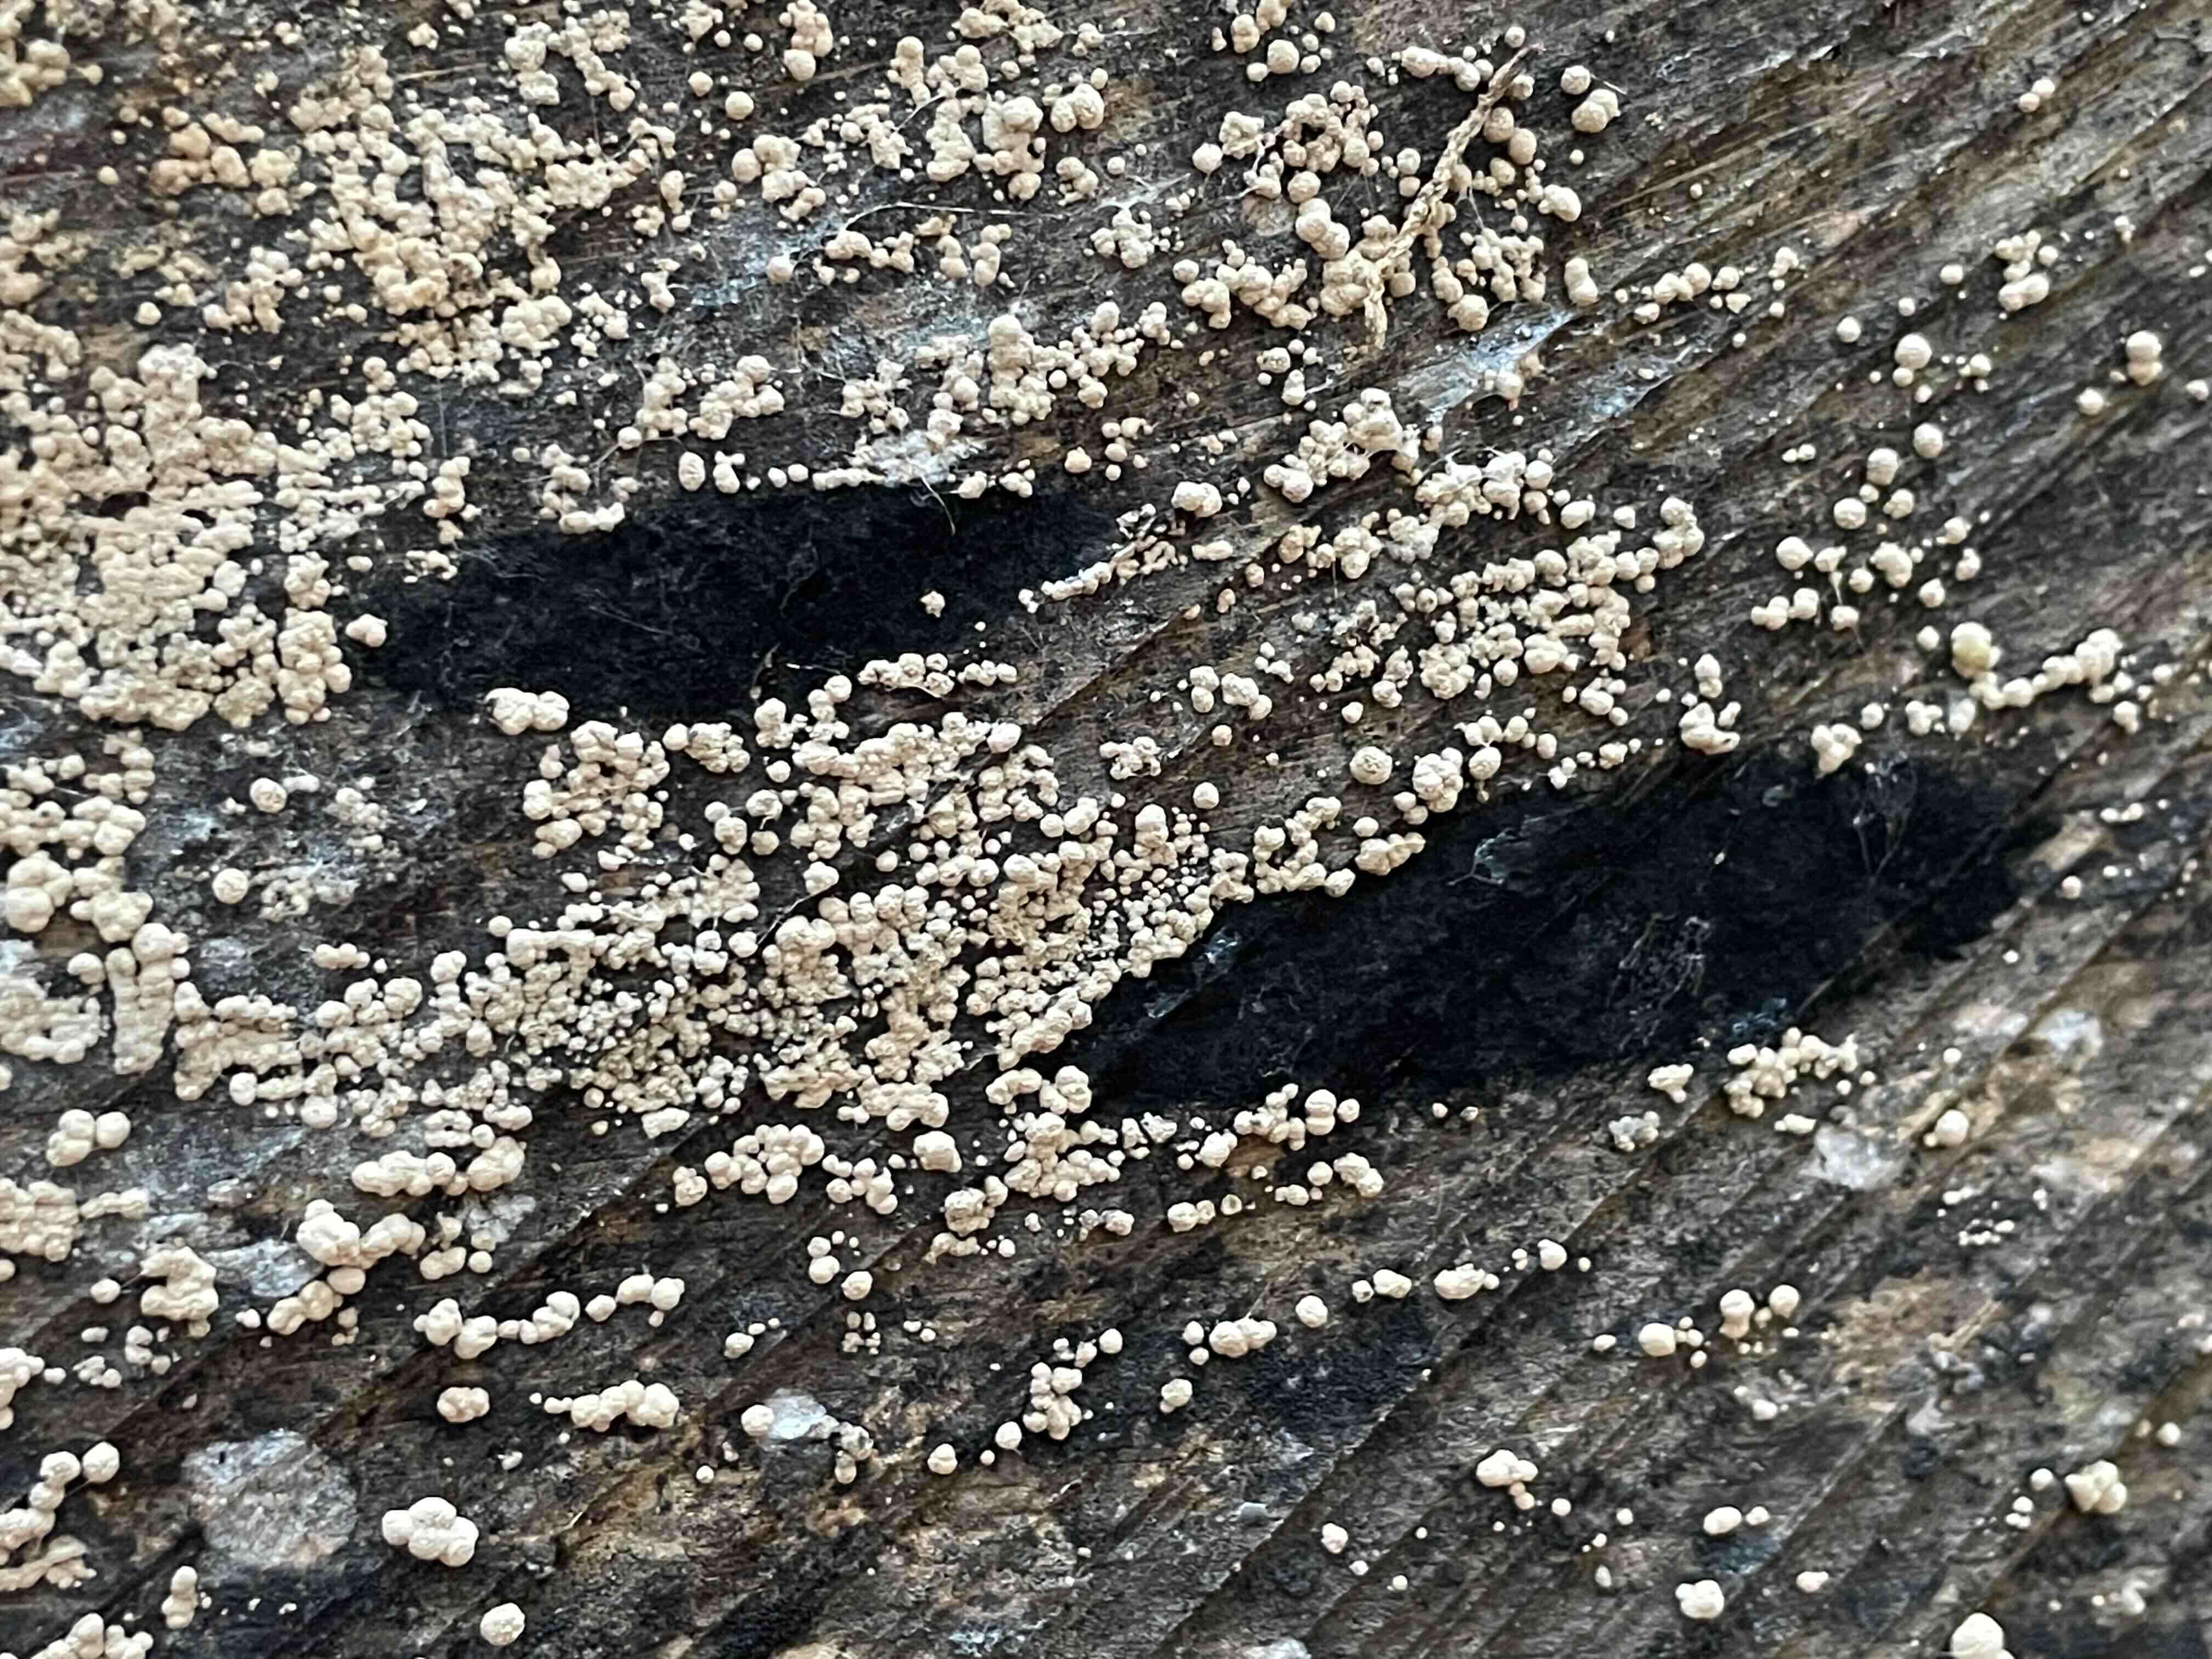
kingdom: Fungi
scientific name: Fungi
